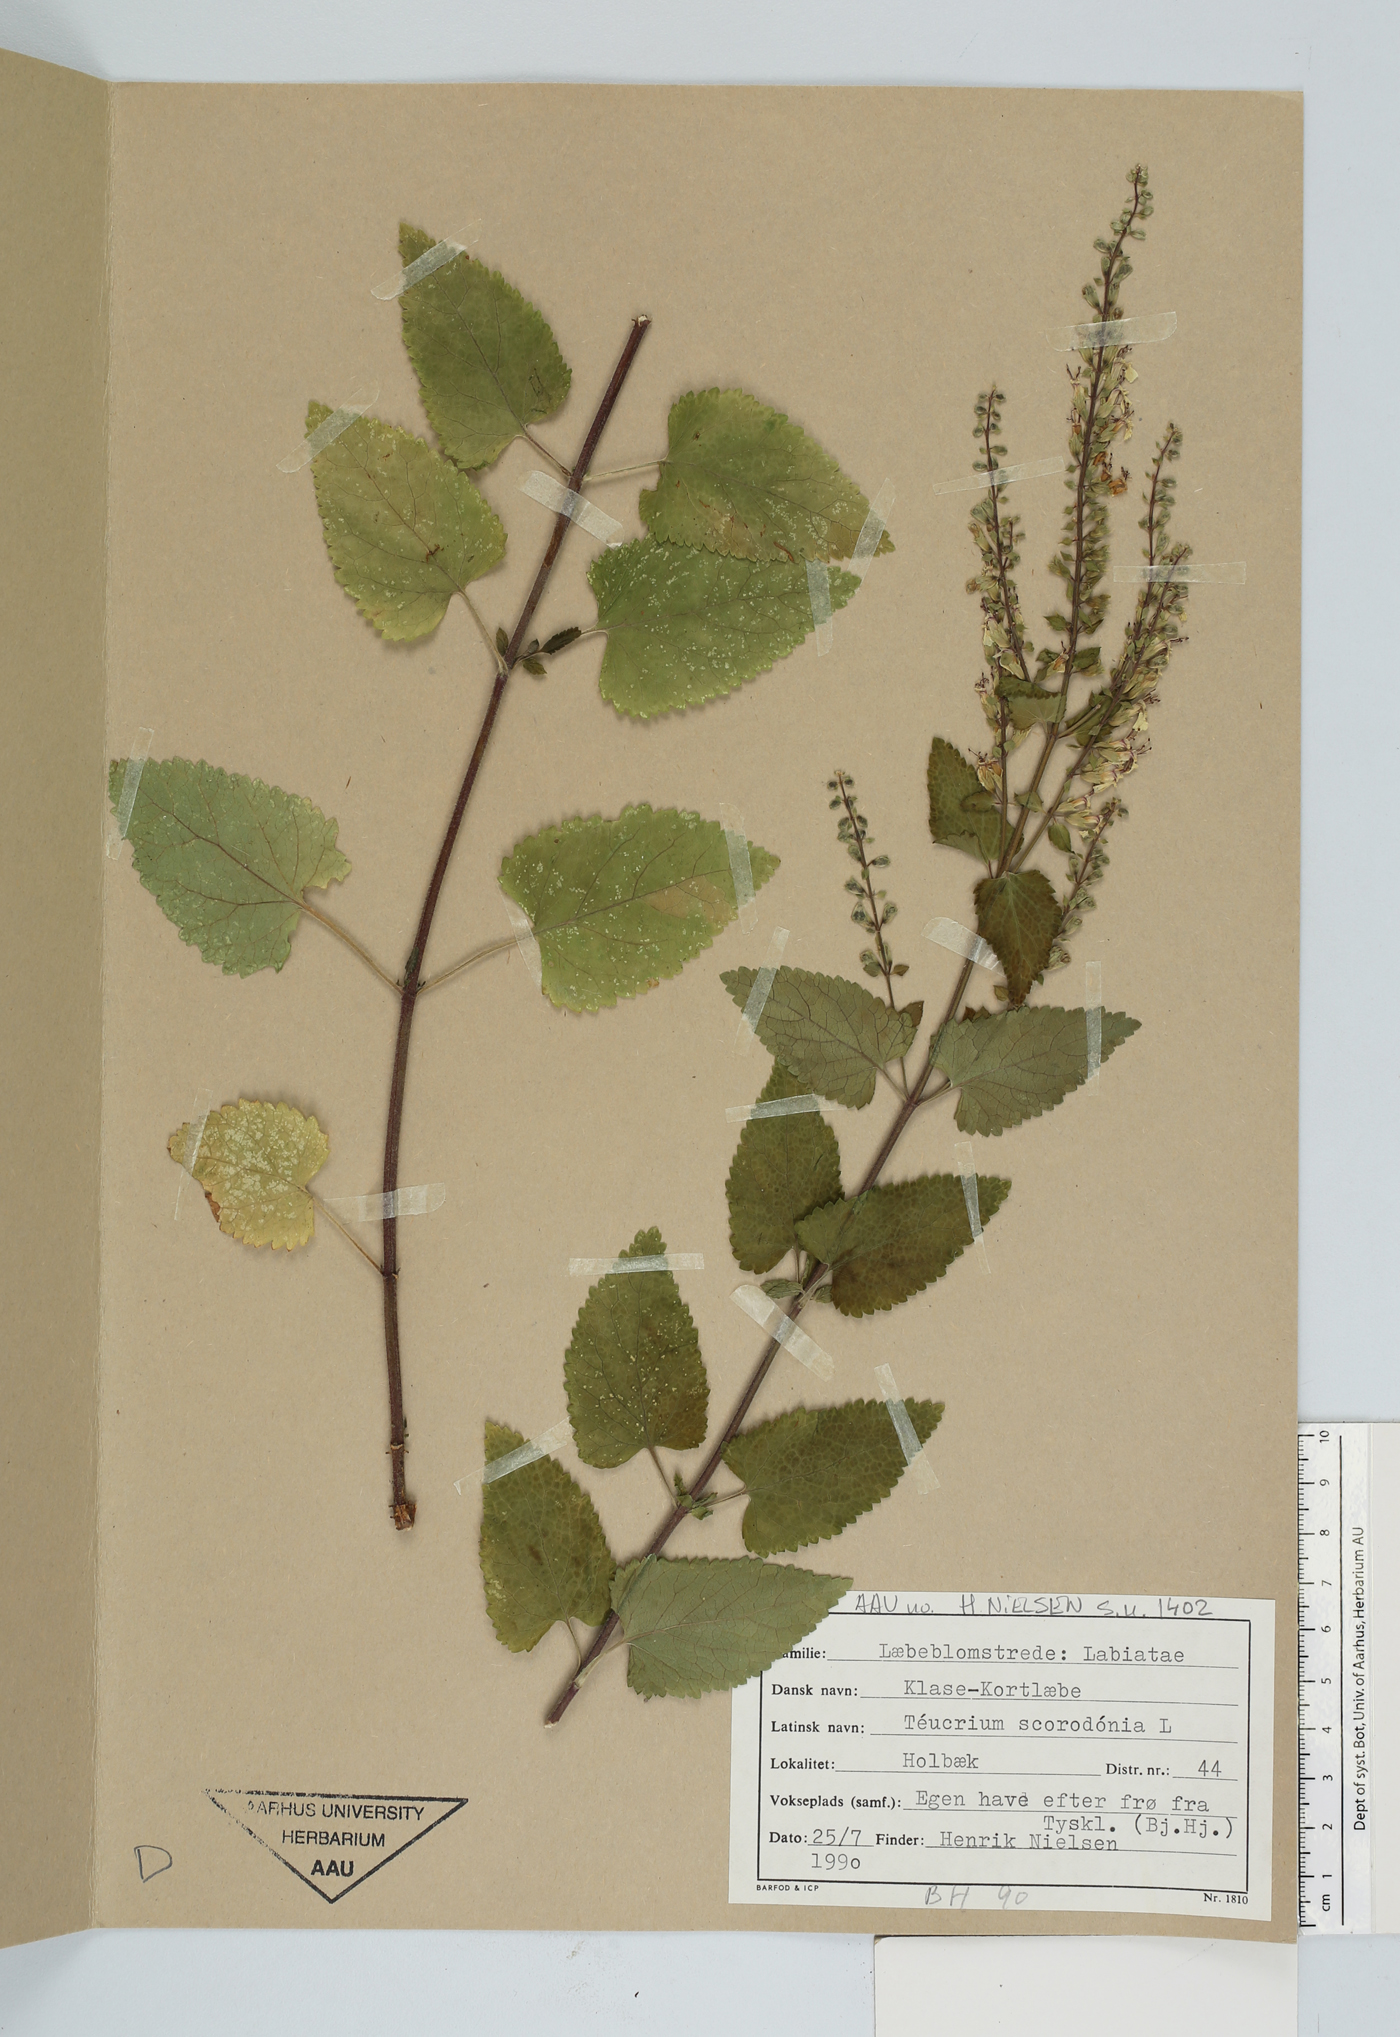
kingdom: Plantae
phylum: Tracheophyta
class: Magnoliopsida
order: Lamiales
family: Lamiaceae
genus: Teucrium
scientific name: Teucrium scorodonia
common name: Woodland germander
